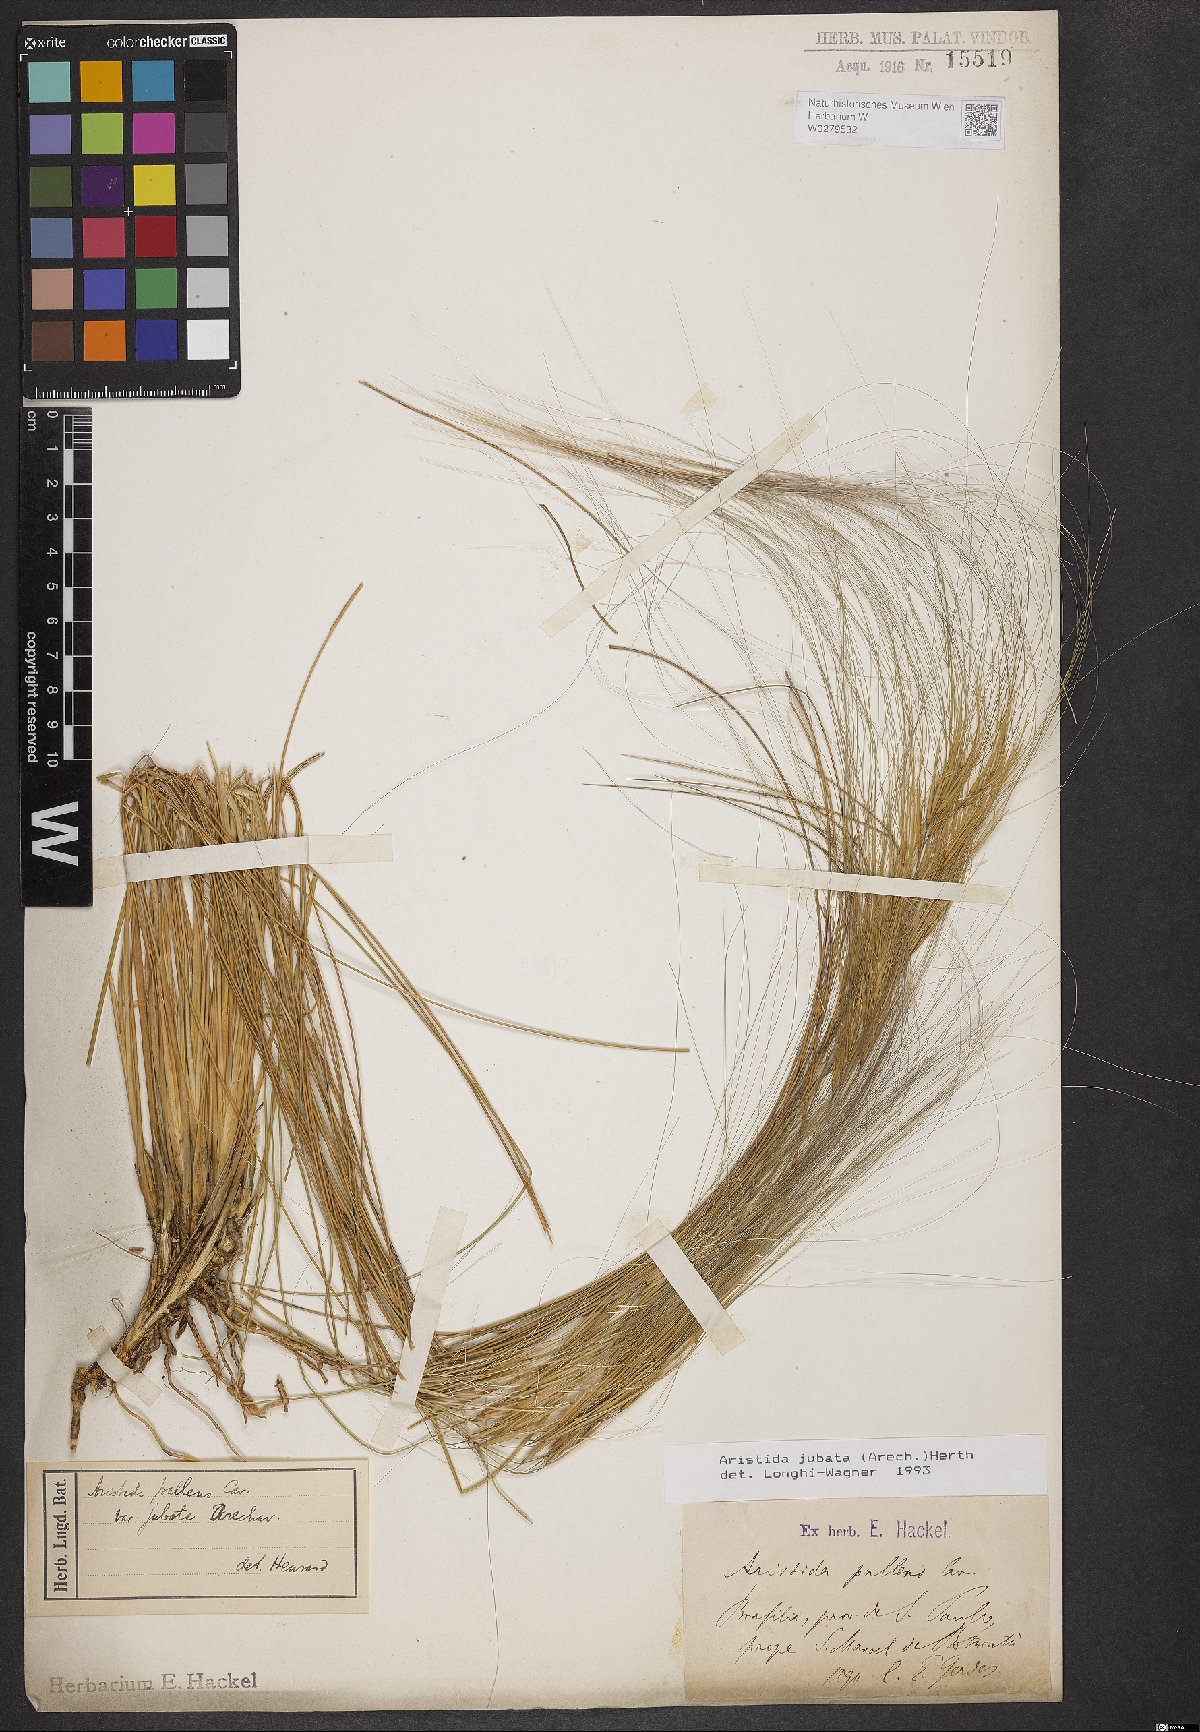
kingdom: Plantae
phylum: Tracheophyta
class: Liliopsida
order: Poales
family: Poaceae
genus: Aristida
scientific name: Aristida jubata
